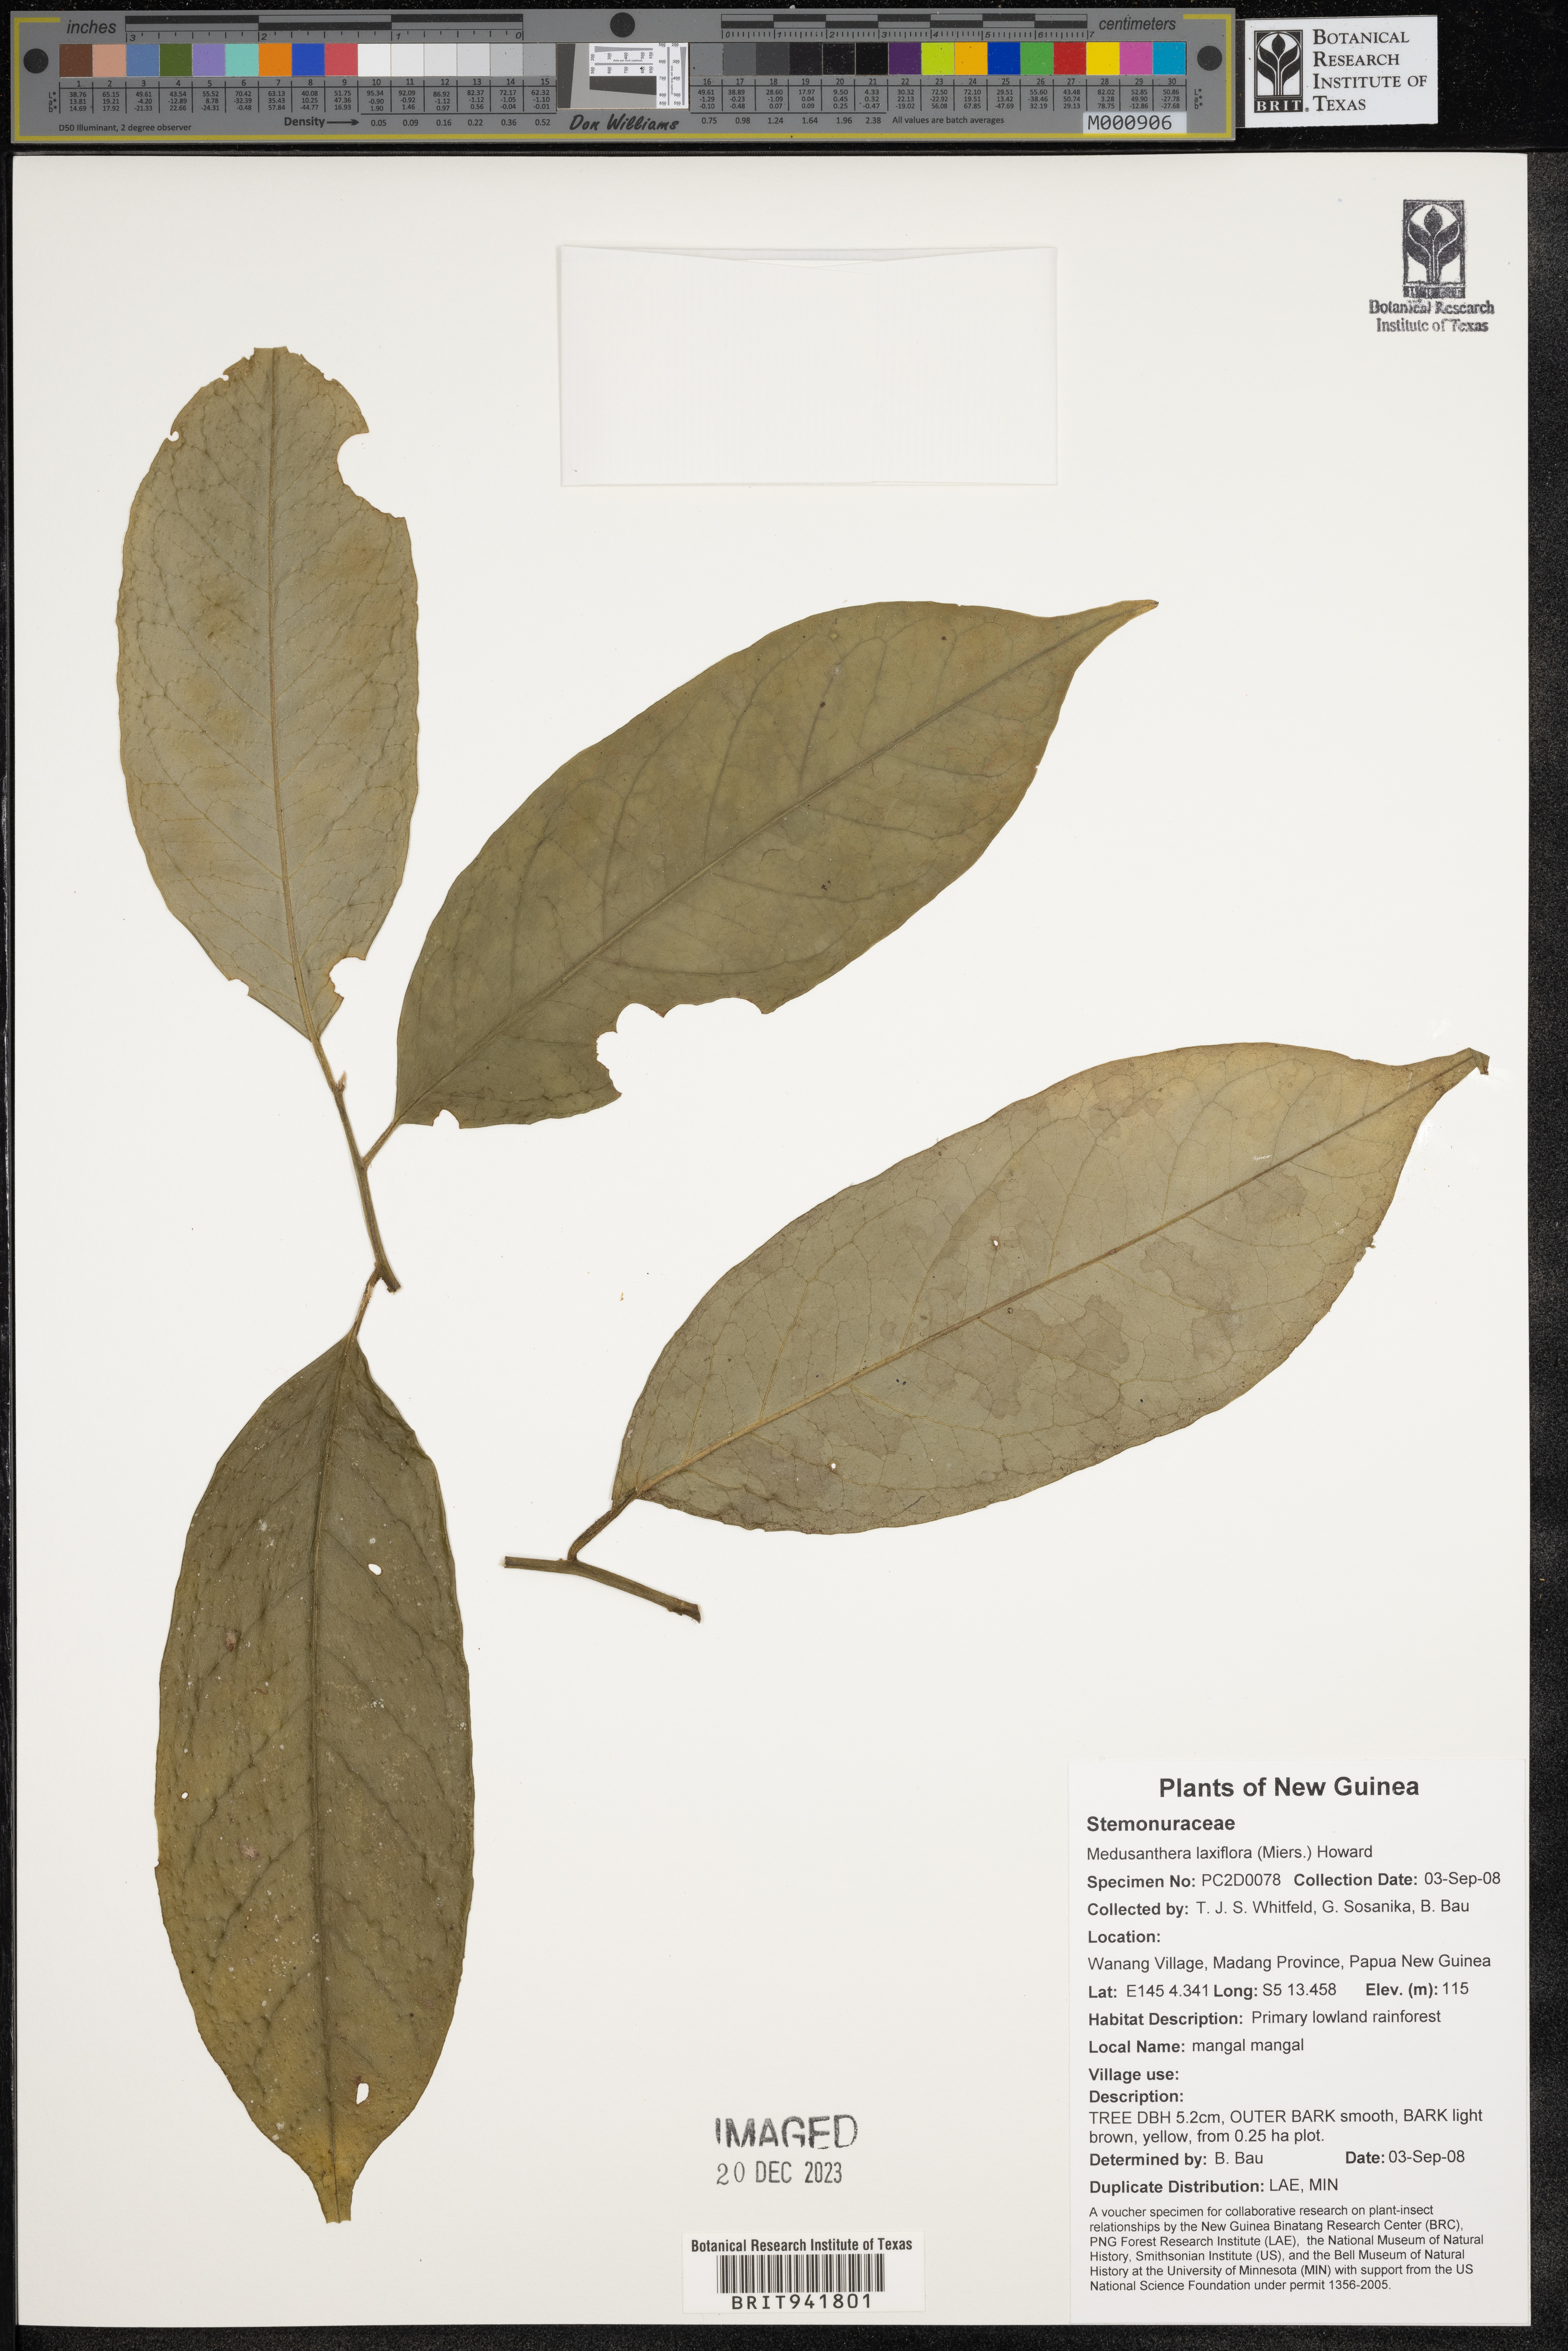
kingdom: Plantae
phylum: Tracheophyta
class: Magnoliopsida
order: Cardiopteridales
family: Stemonuraceae
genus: Medusanthera
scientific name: Medusanthera
